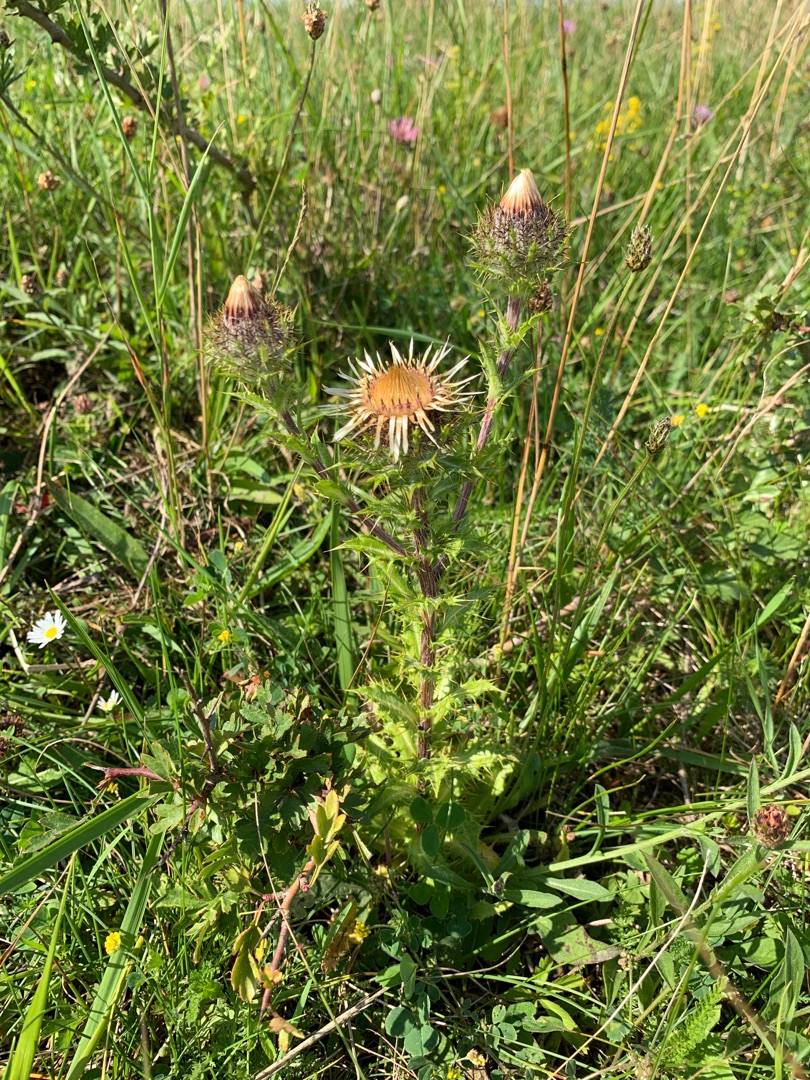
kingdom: Plantae
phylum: Tracheophyta
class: Magnoliopsida
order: Asterales
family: Asteraceae
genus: Carlina
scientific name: Carlina vulgaris
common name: Bakketidsel
